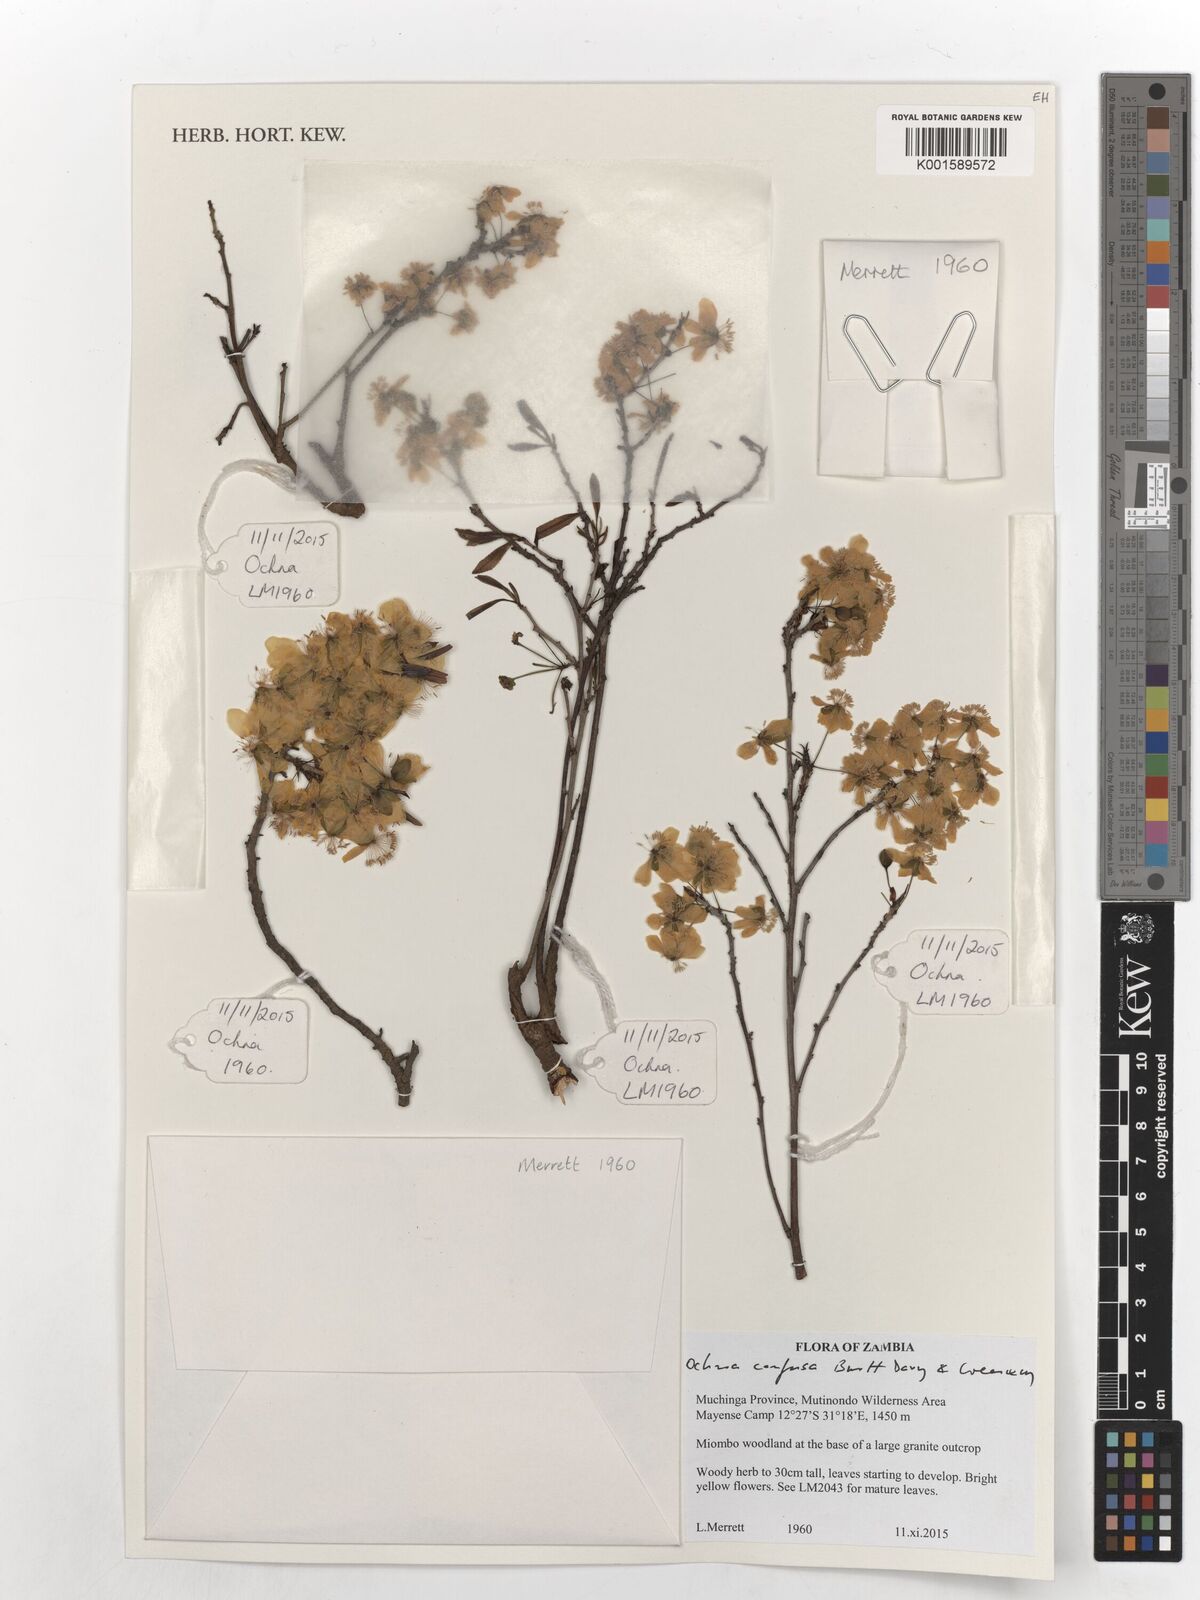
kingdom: Plantae
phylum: Tracheophyta
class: Magnoliopsida
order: Malpighiales
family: Ochnaceae
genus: Ochna
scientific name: Ochna confusa
